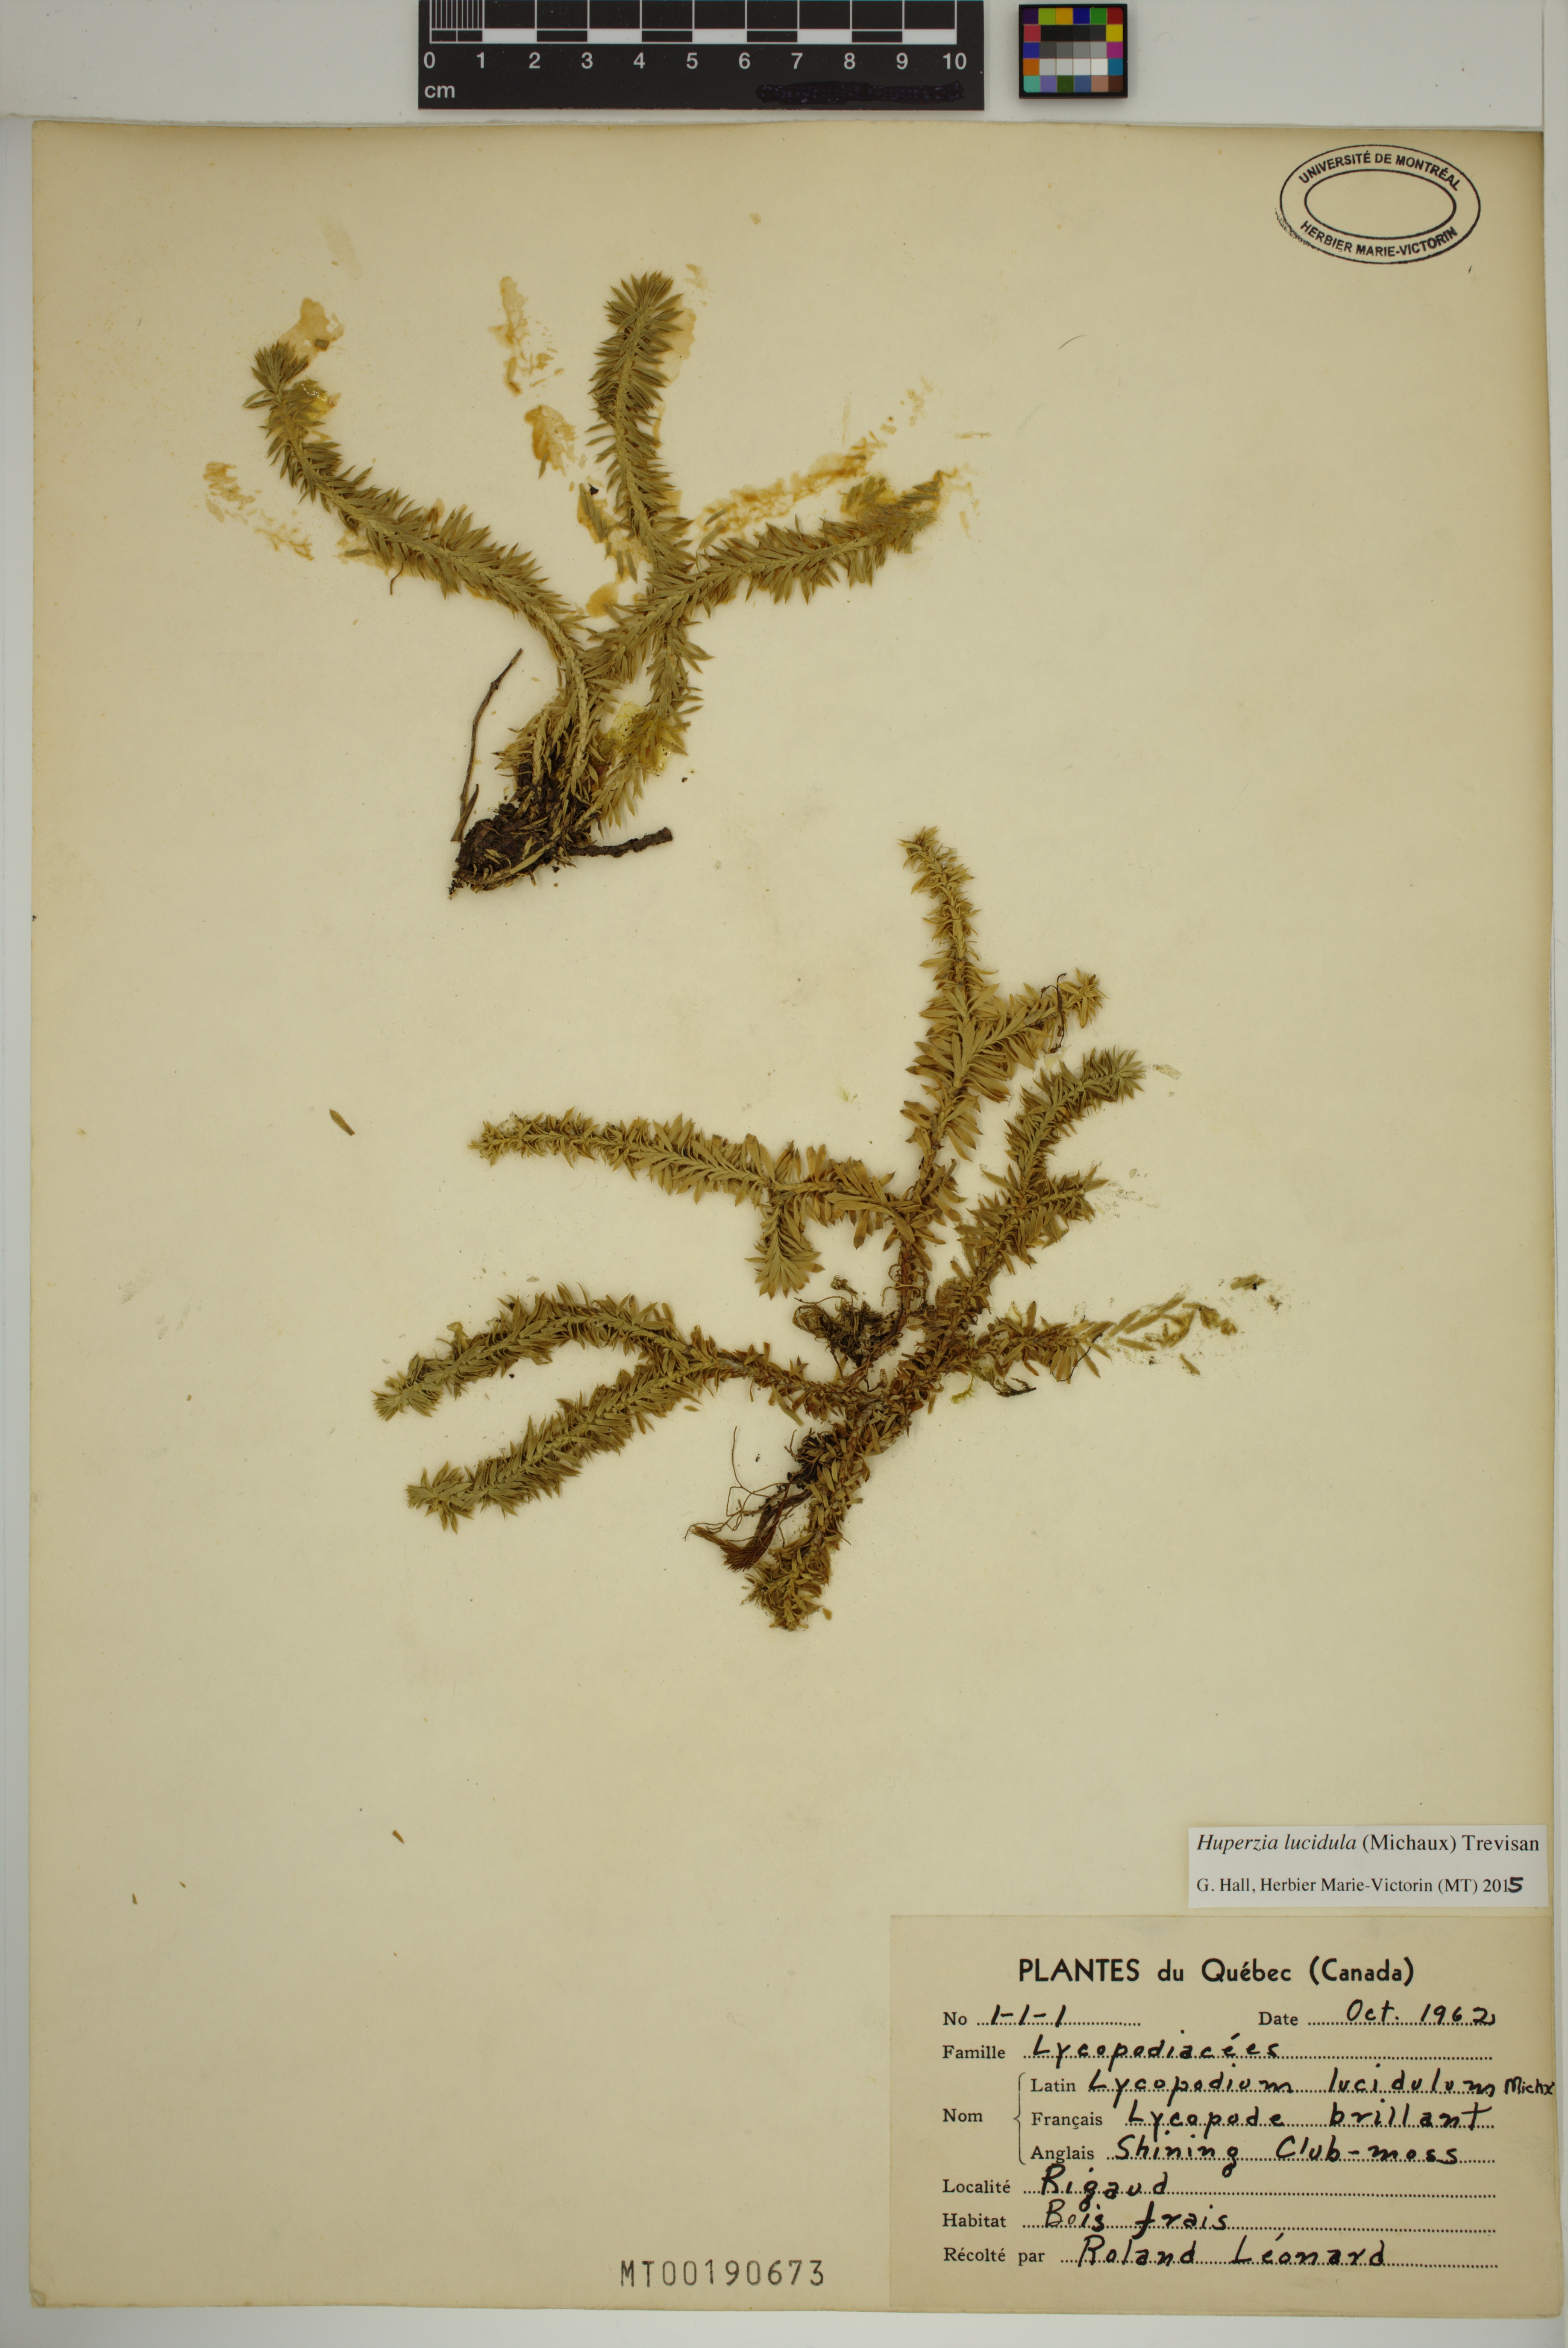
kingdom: Plantae
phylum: Tracheophyta
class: Lycopodiopsida
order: Lycopodiales
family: Lycopodiaceae
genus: Huperzia
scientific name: Huperzia lucidula
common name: Shining clubmoss
